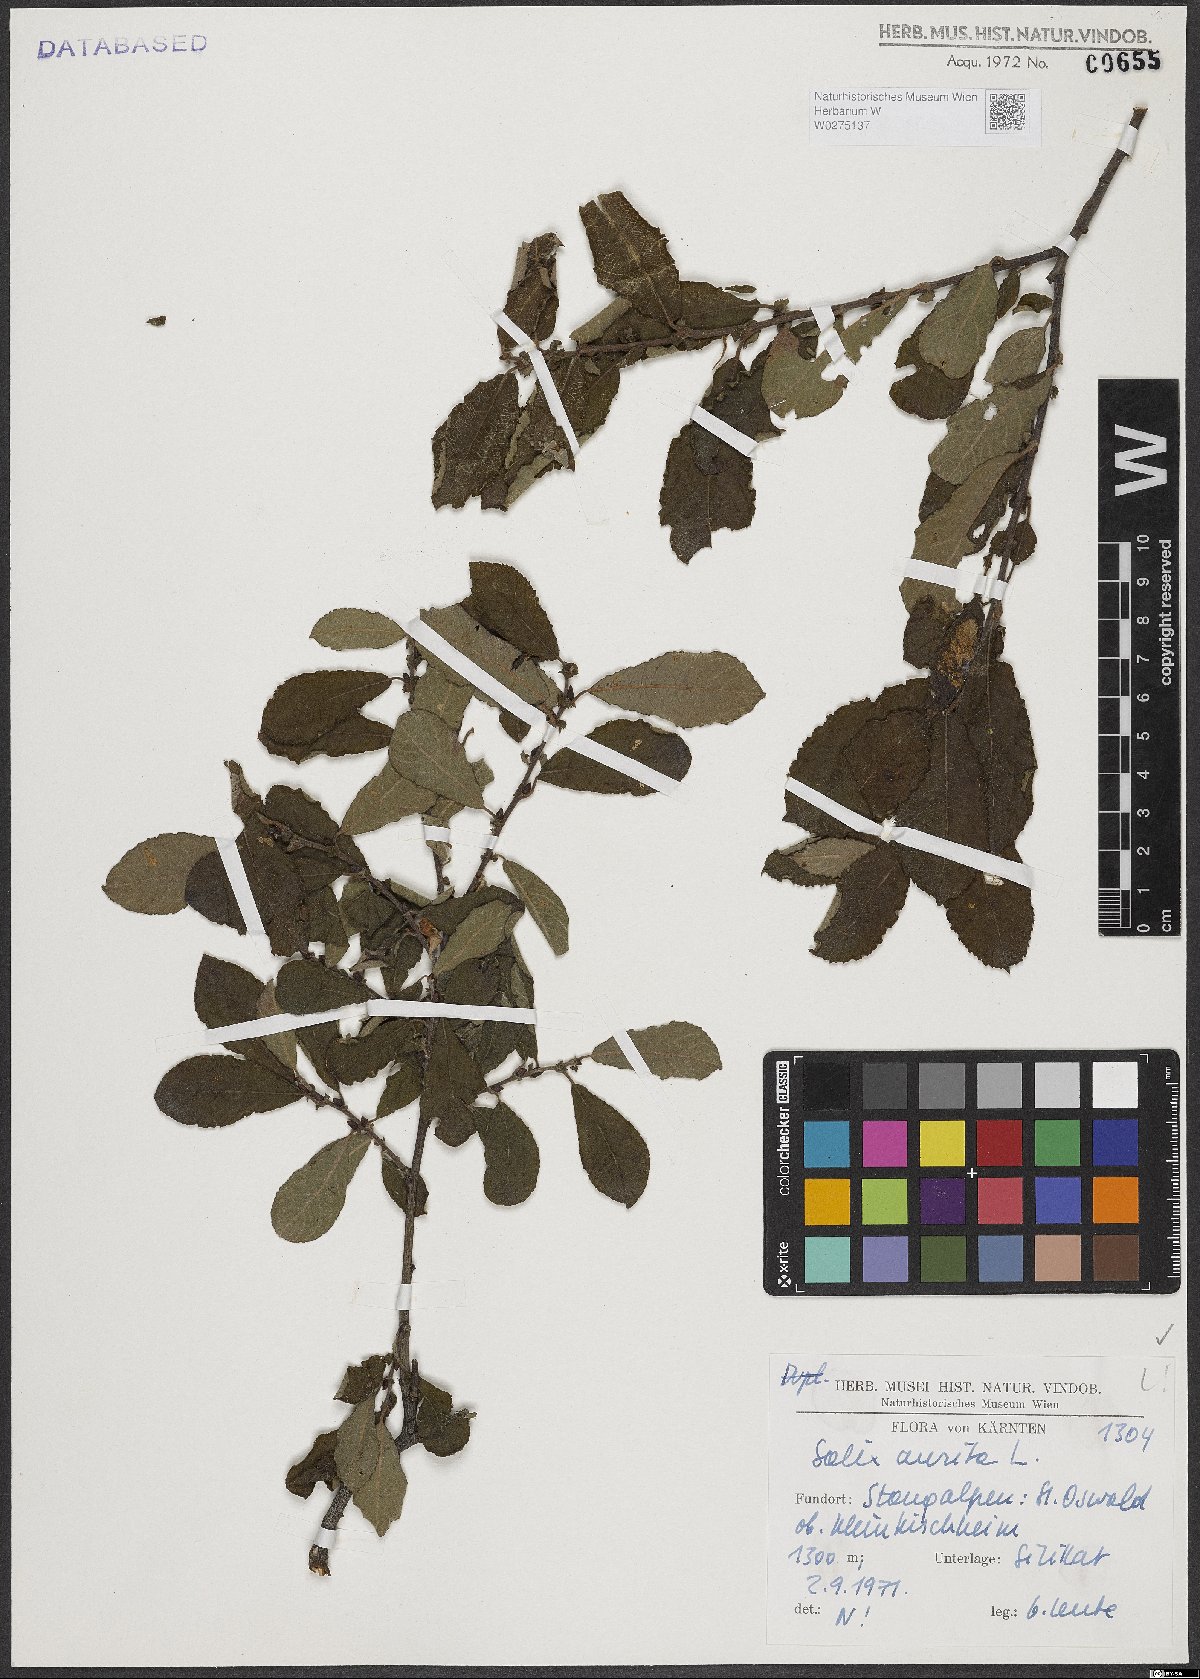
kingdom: Plantae
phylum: Tracheophyta
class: Magnoliopsida
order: Malpighiales
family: Salicaceae
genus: Salix
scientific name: Salix aurita
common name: Eared willow
